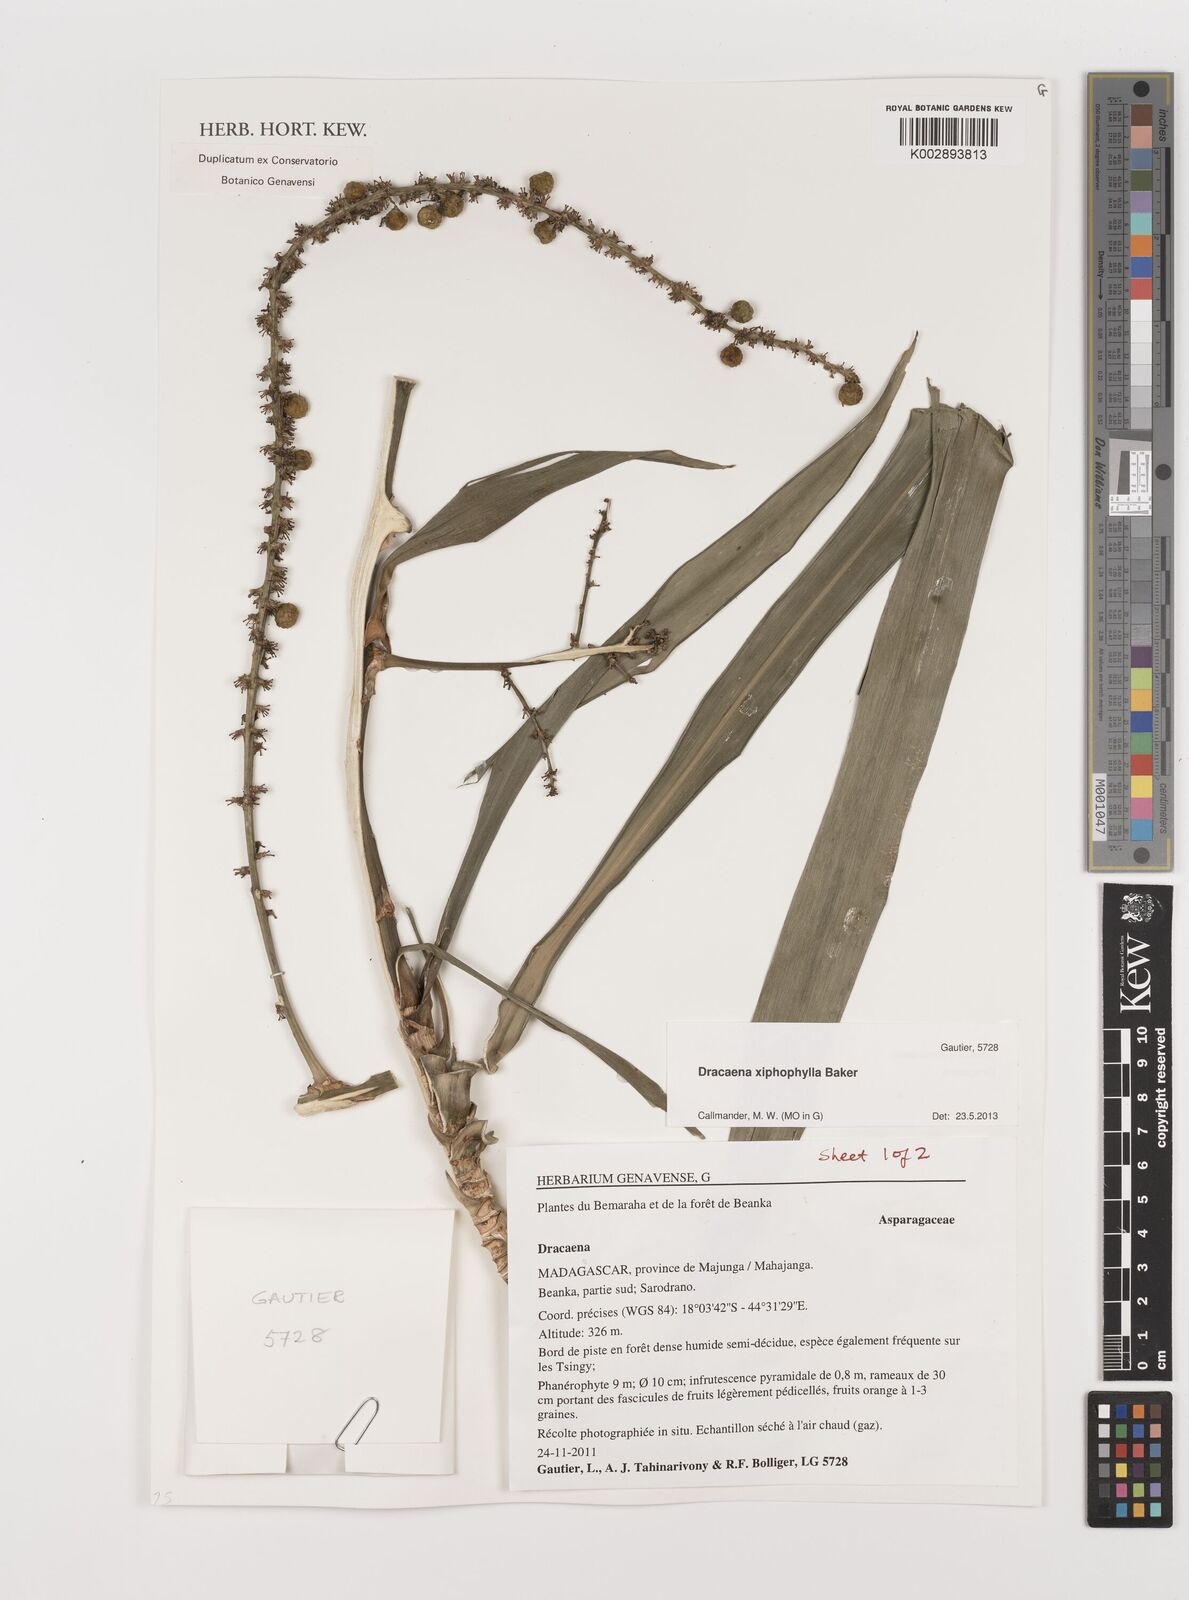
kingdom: Plantae
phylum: Tracheophyta
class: Liliopsida
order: Asparagales
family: Asparagaceae
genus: Dracaena
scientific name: Dracaena xiphophylla
